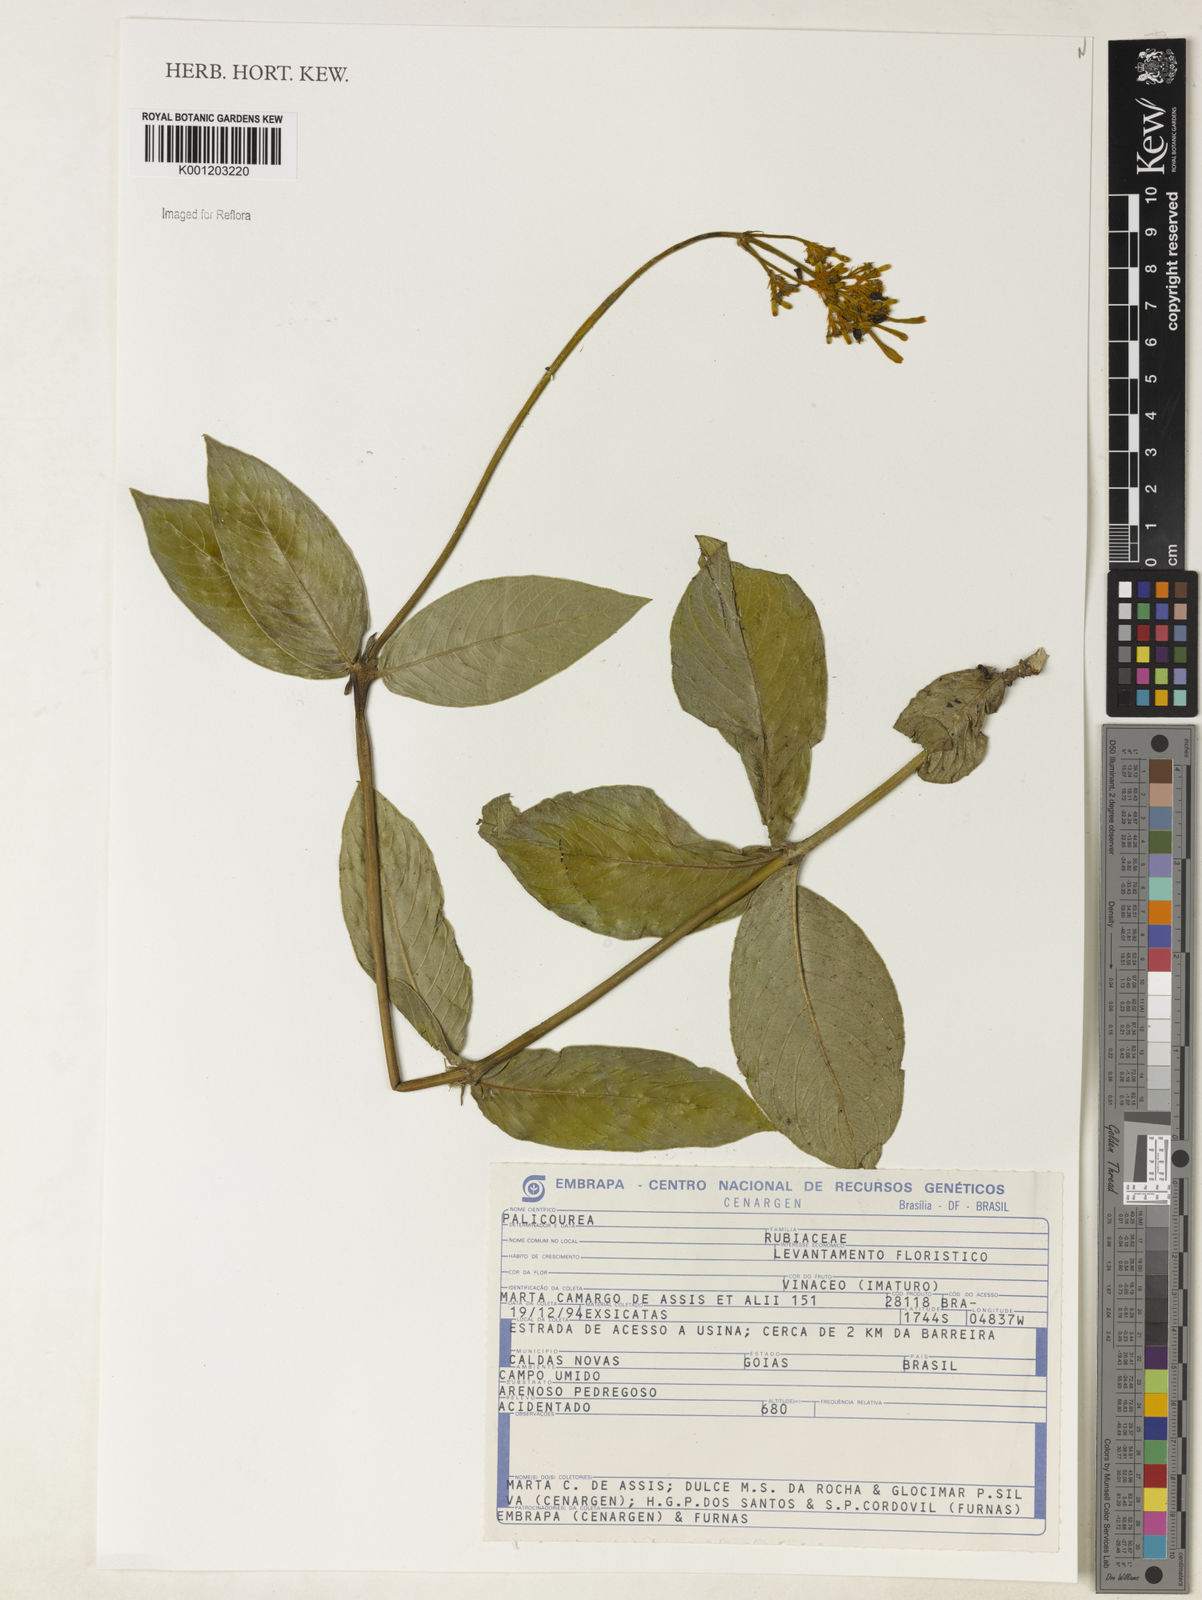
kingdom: Plantae
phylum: Tracheophyta
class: Magnoliopsida
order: Gentianales
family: Rubiaceae
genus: Palicourea
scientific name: Palicourea
